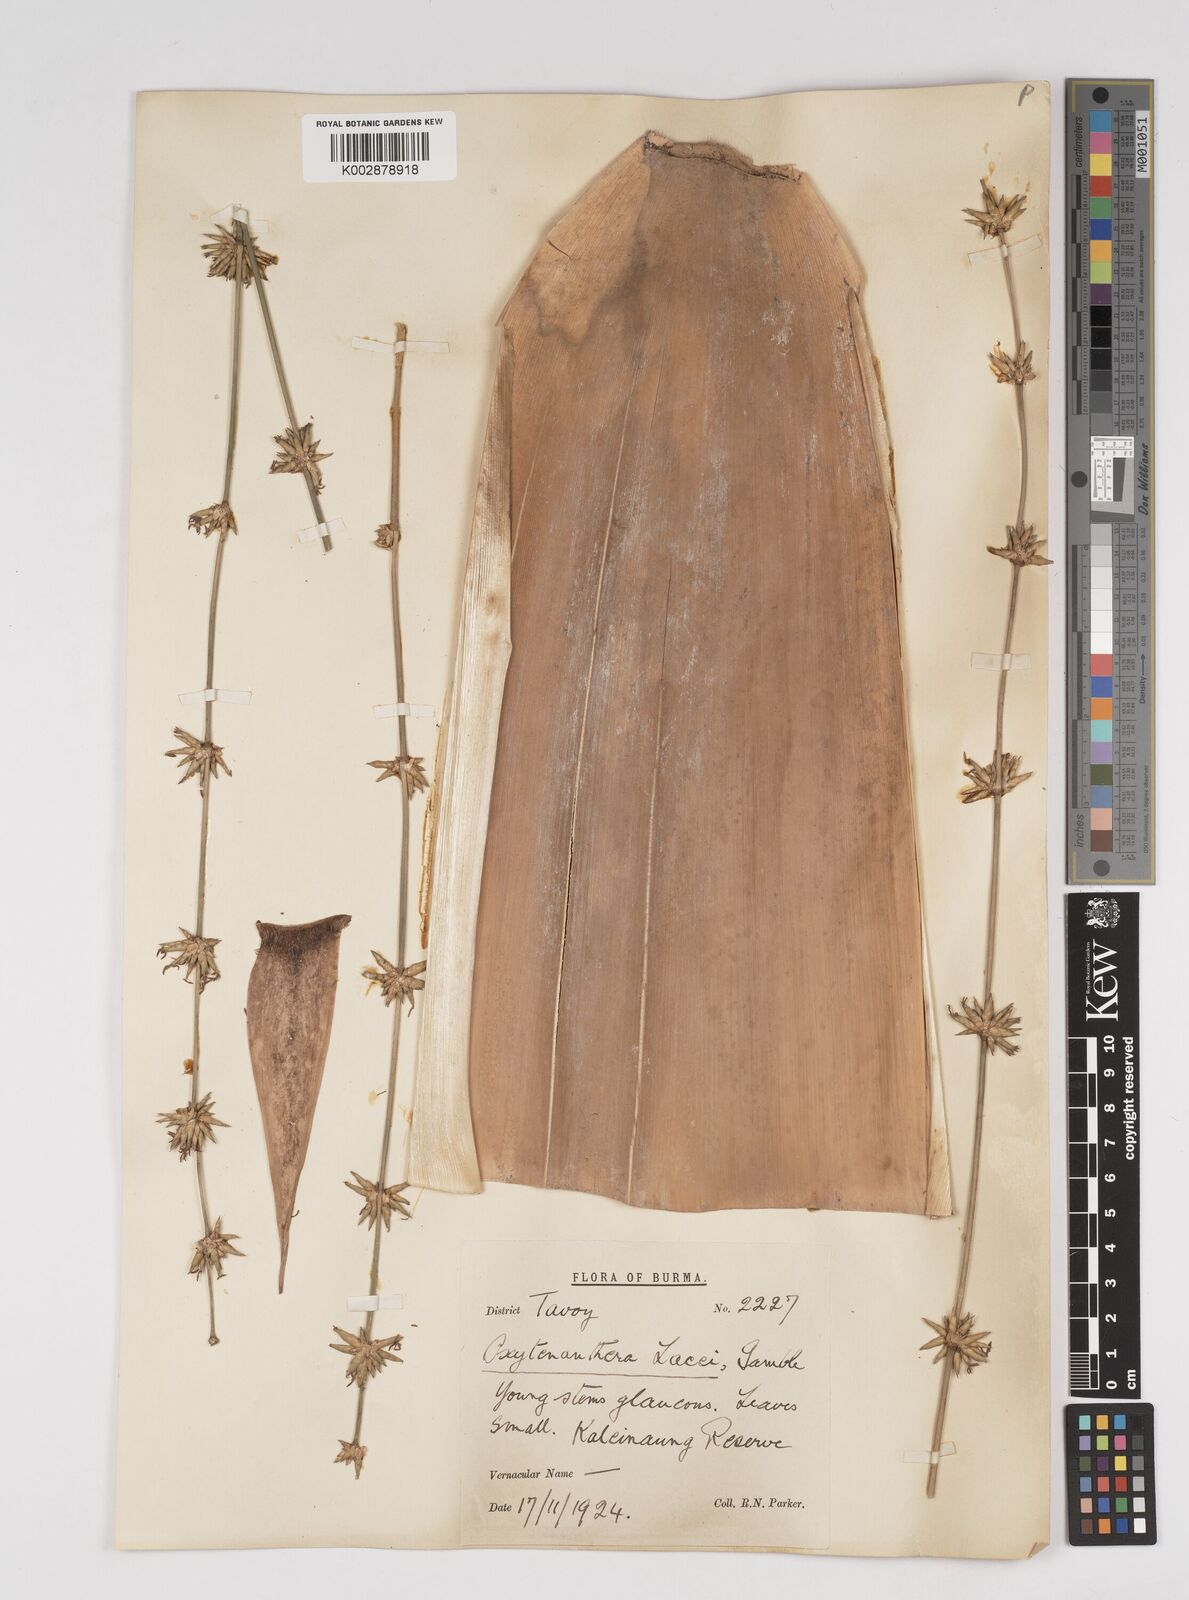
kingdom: Plantae
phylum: Tracheophyta
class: Liliopsida
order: Poales
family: Poaceae
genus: Dendrocalamus
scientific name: Dendrocalamus
